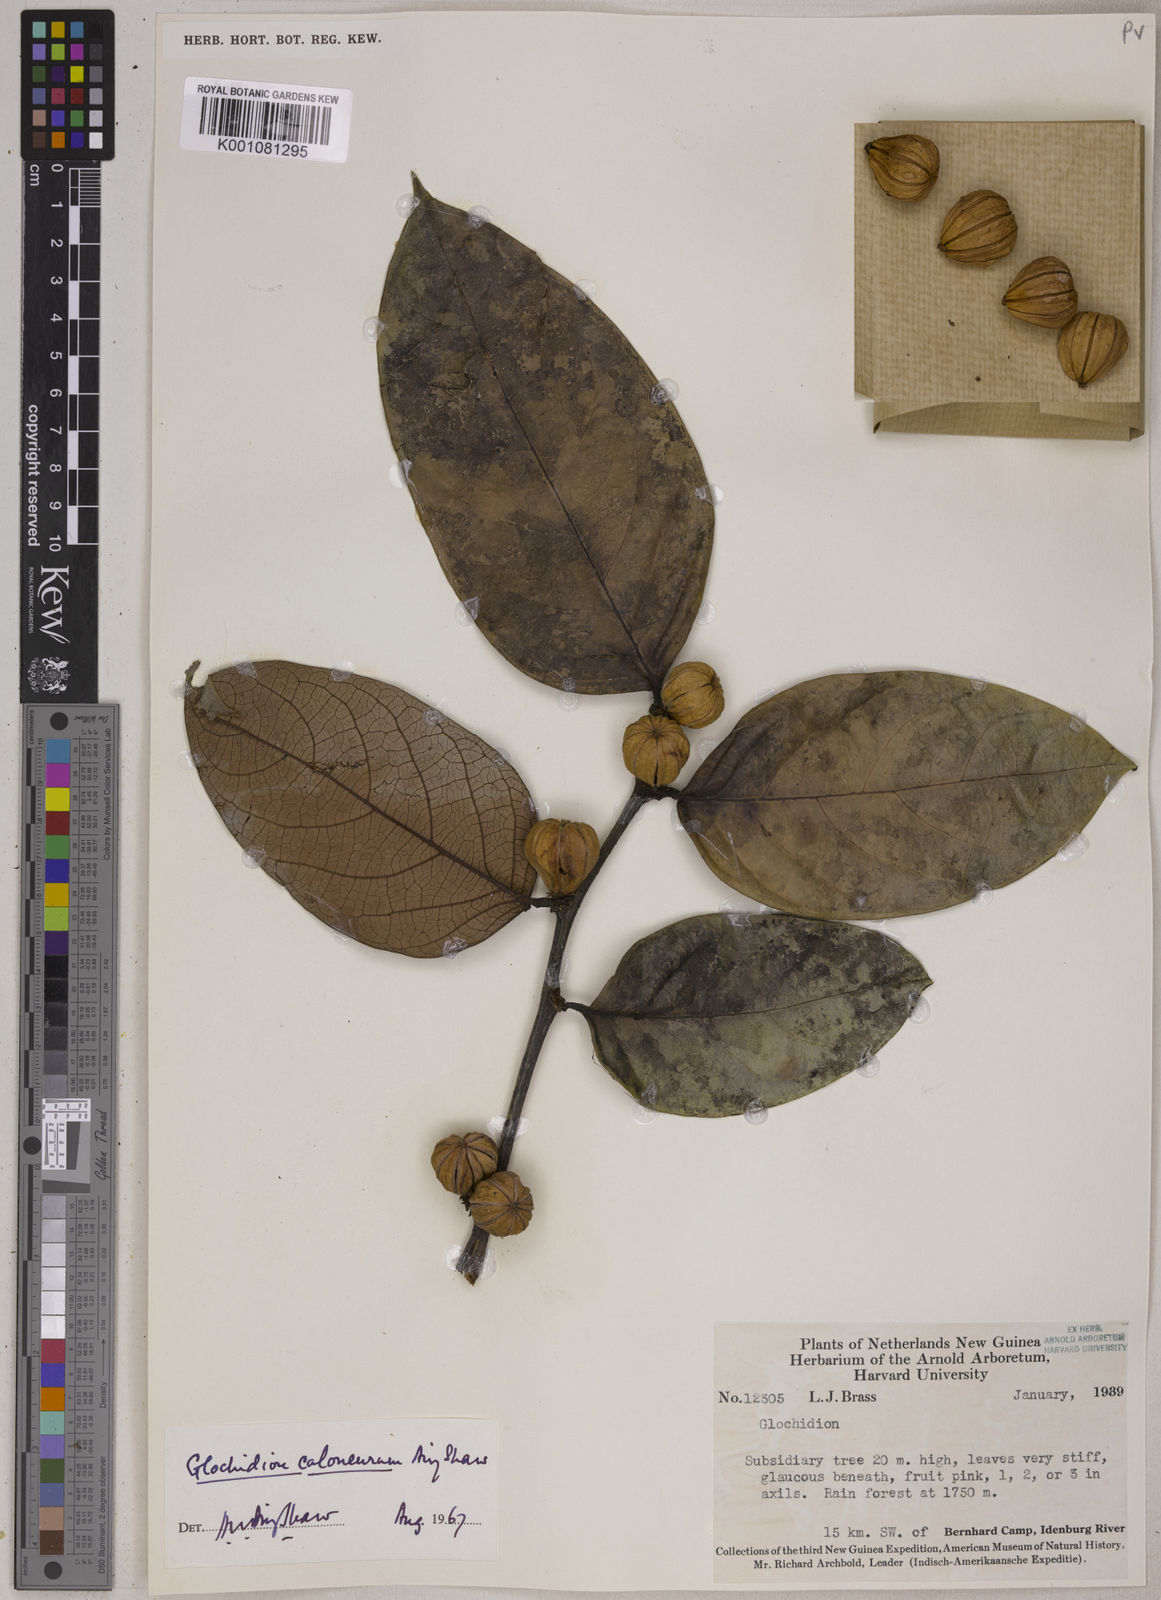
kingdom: Plantae
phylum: Tracheophyta
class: Magnoliopsida
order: Malpighiales
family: Phyllanthaceae
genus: Glochidion
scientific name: Glochidion caloneurum
